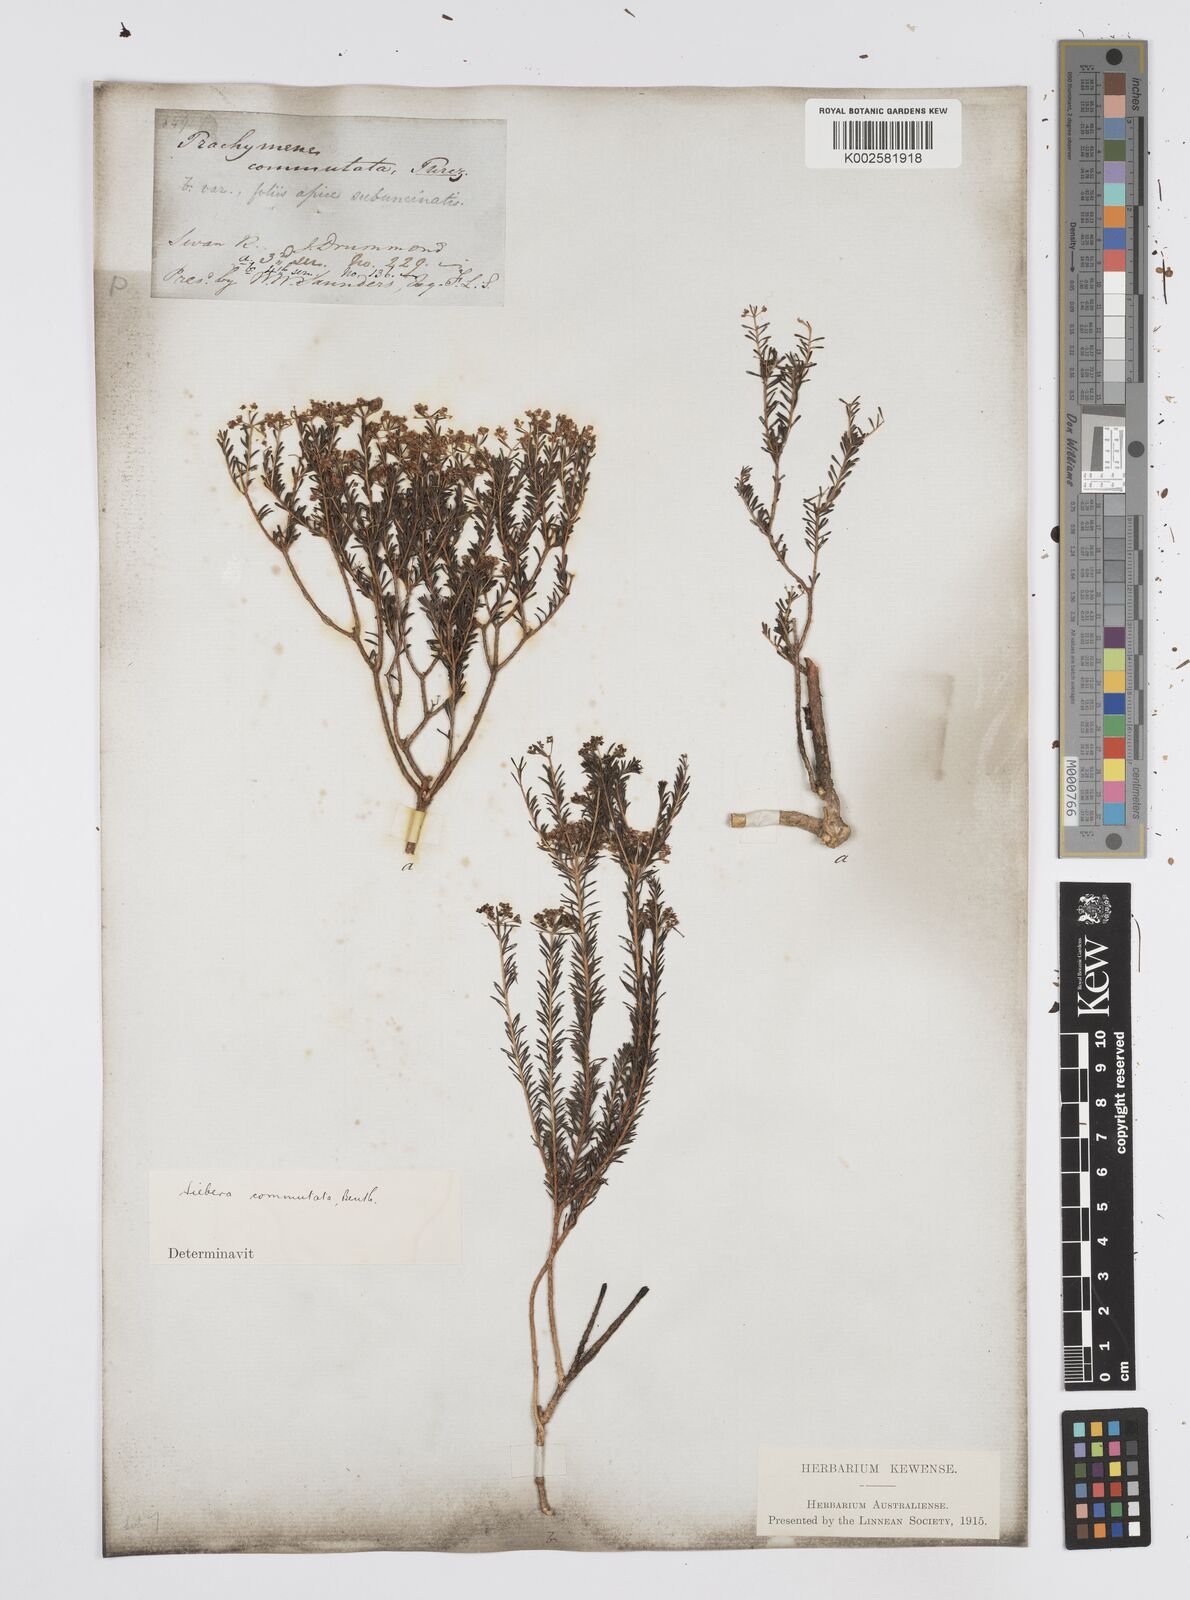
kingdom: Plantae
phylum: Tracheophyta
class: Magnoliopsida
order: Apiales
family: Apiaceae
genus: Platysace
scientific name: Platysace commutata
